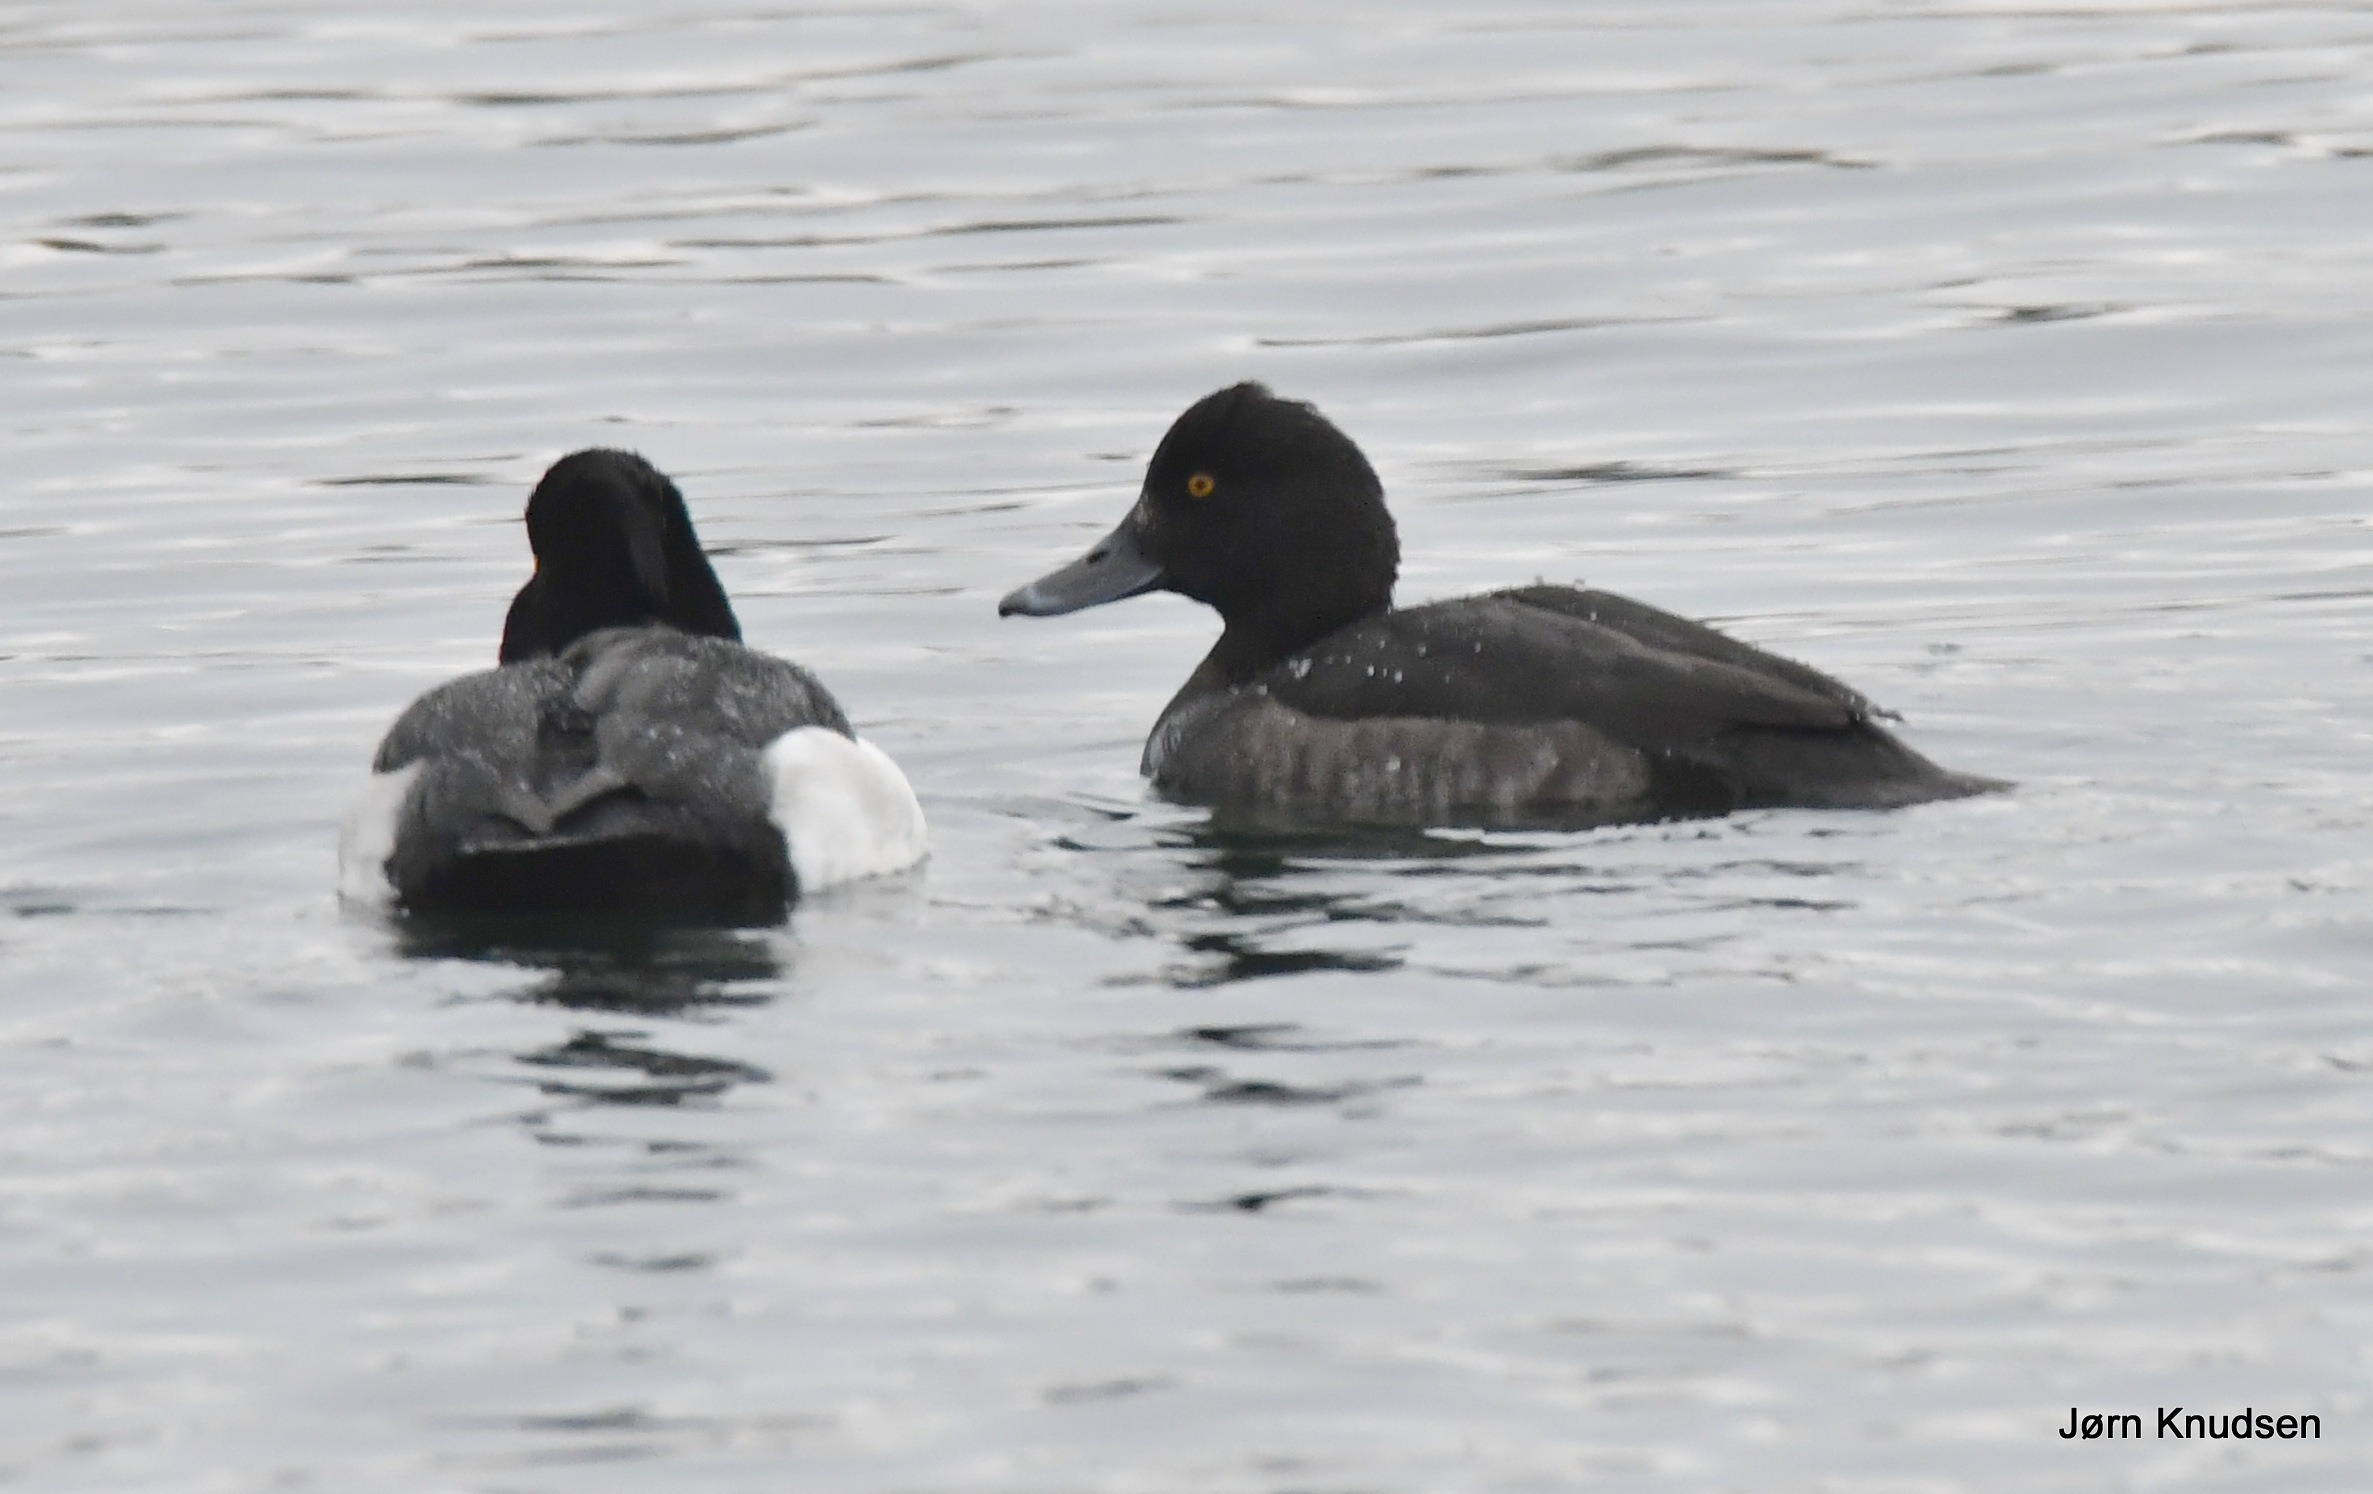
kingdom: Animalia
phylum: Chordata
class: Aves
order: Anseriformes
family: Anatidae
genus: Aythya
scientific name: Aythya fuligula
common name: Troldand
